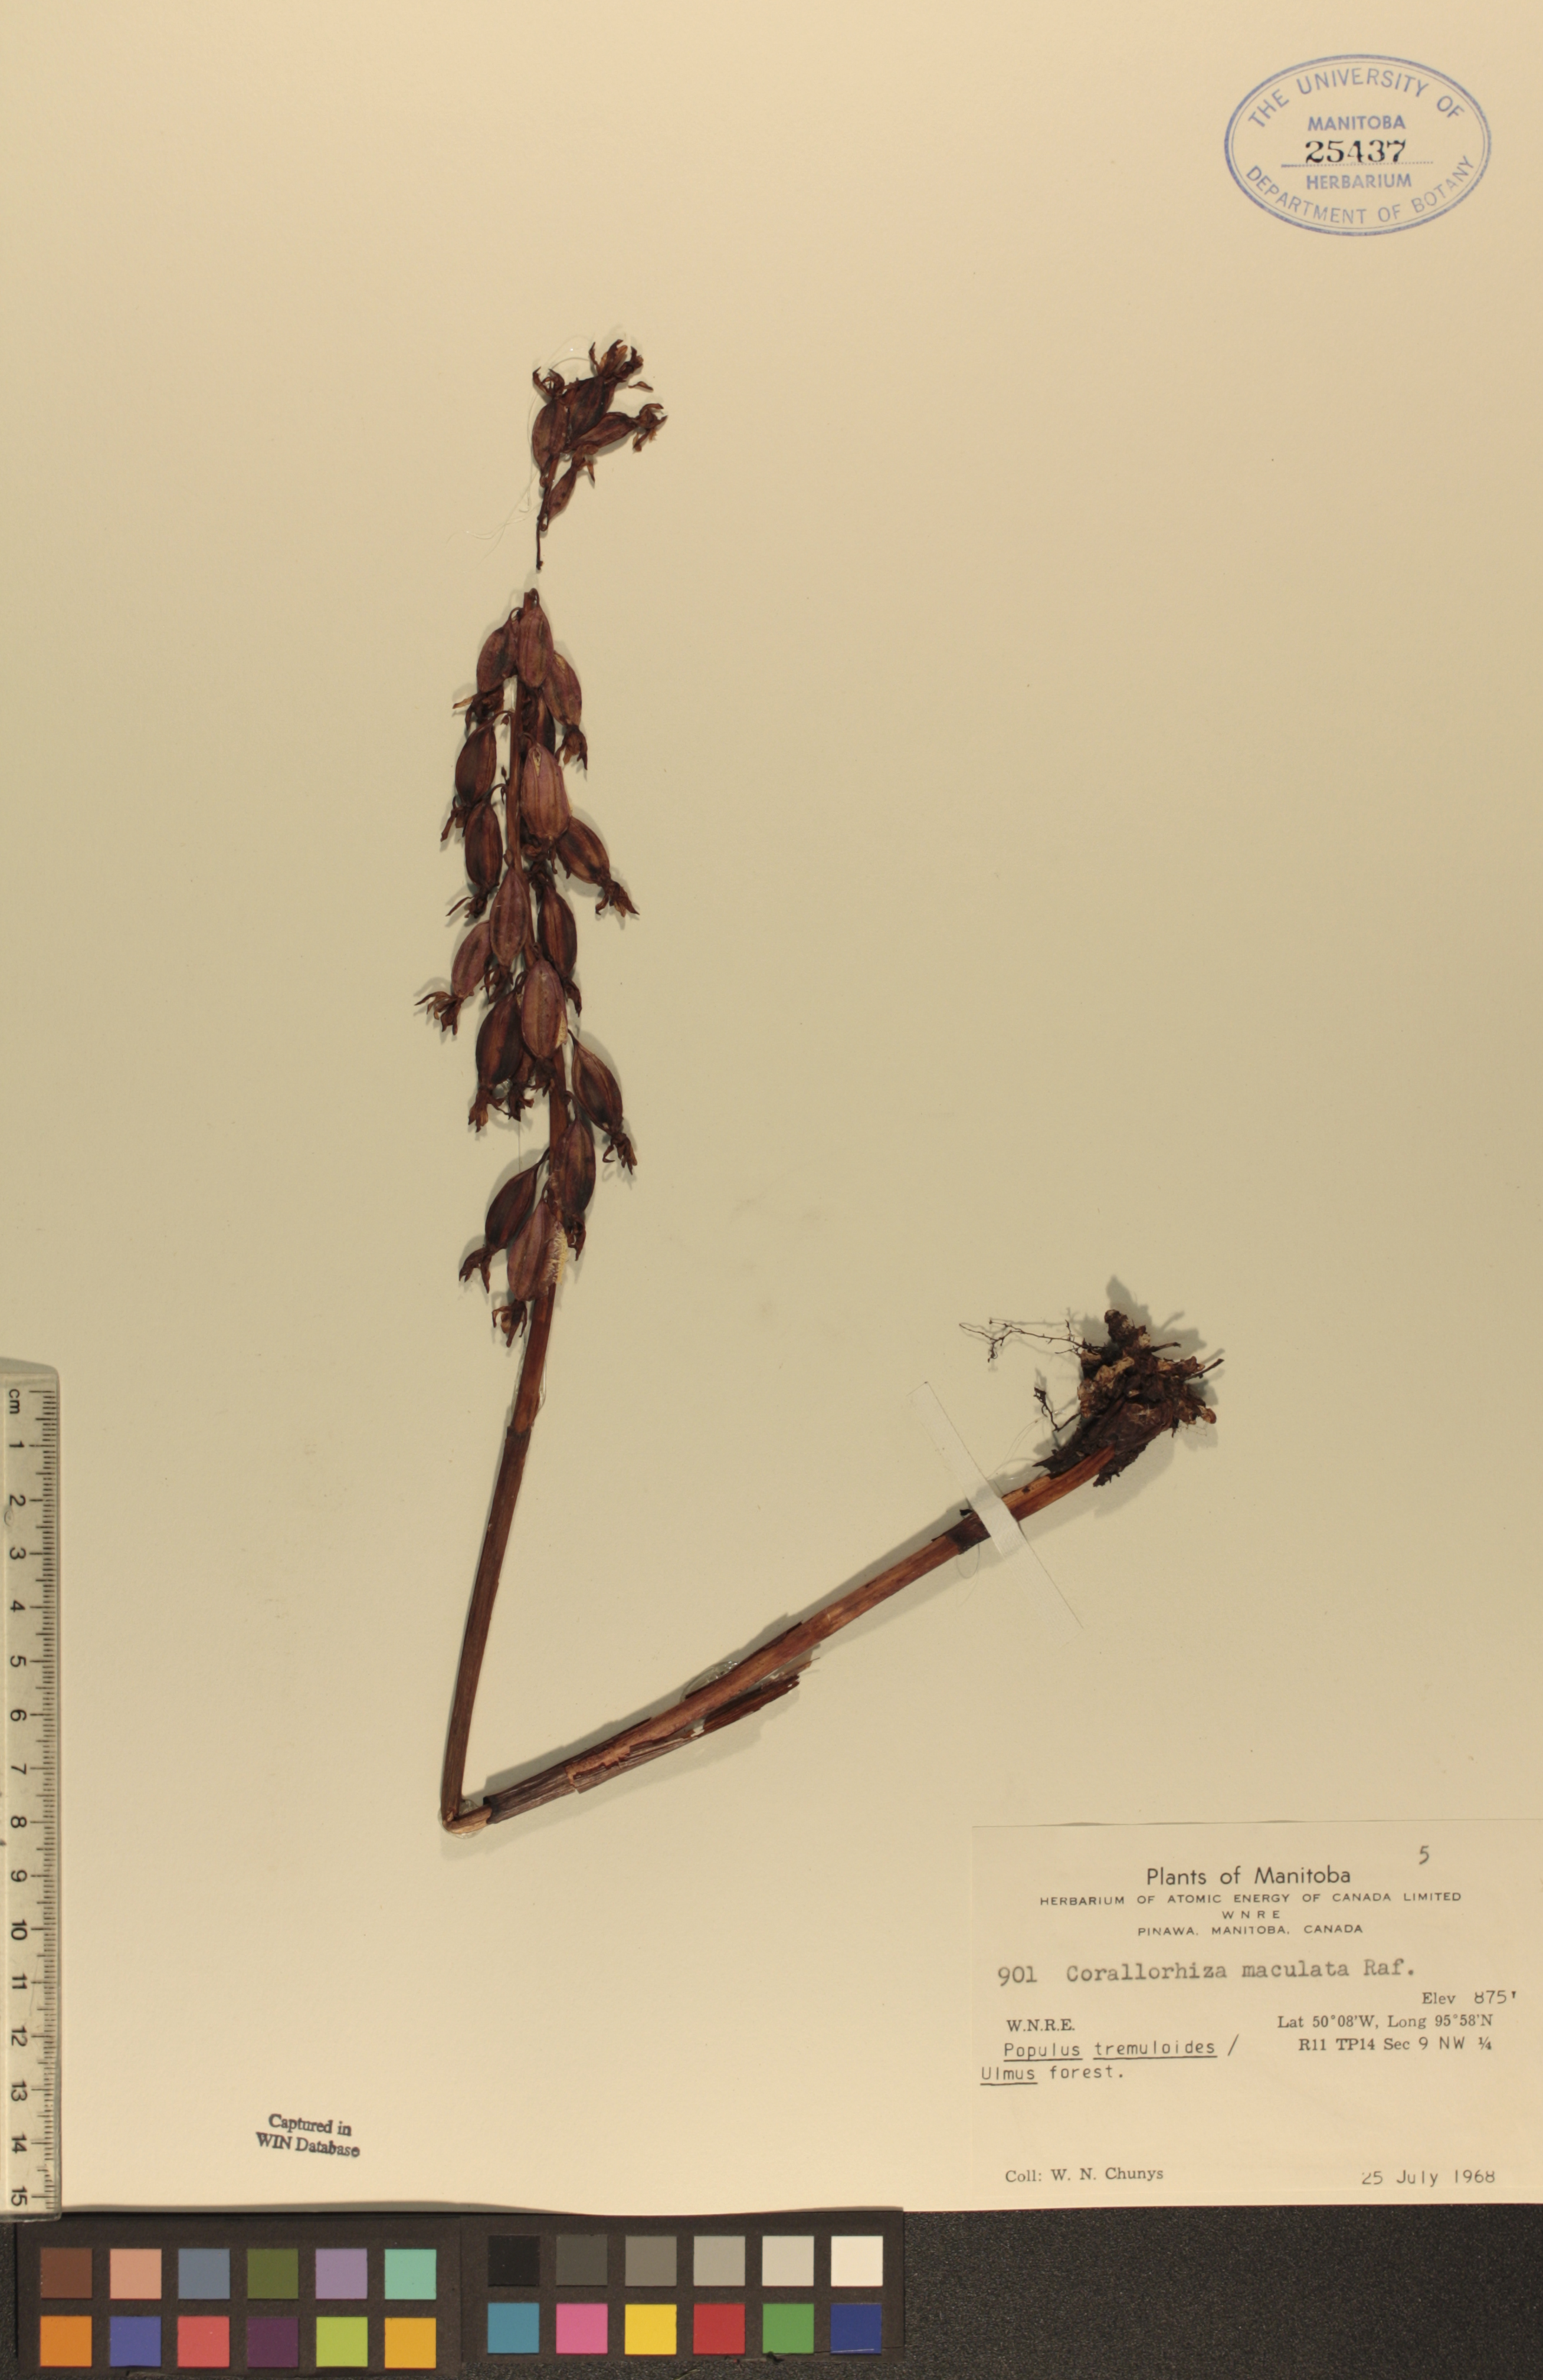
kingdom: Plantae
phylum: Tracheophyta
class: Liliopsida
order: Asparagales
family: Orchidaceae
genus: Corallorhiza
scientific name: Corallorhiza maculata
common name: Spotted coralroot
